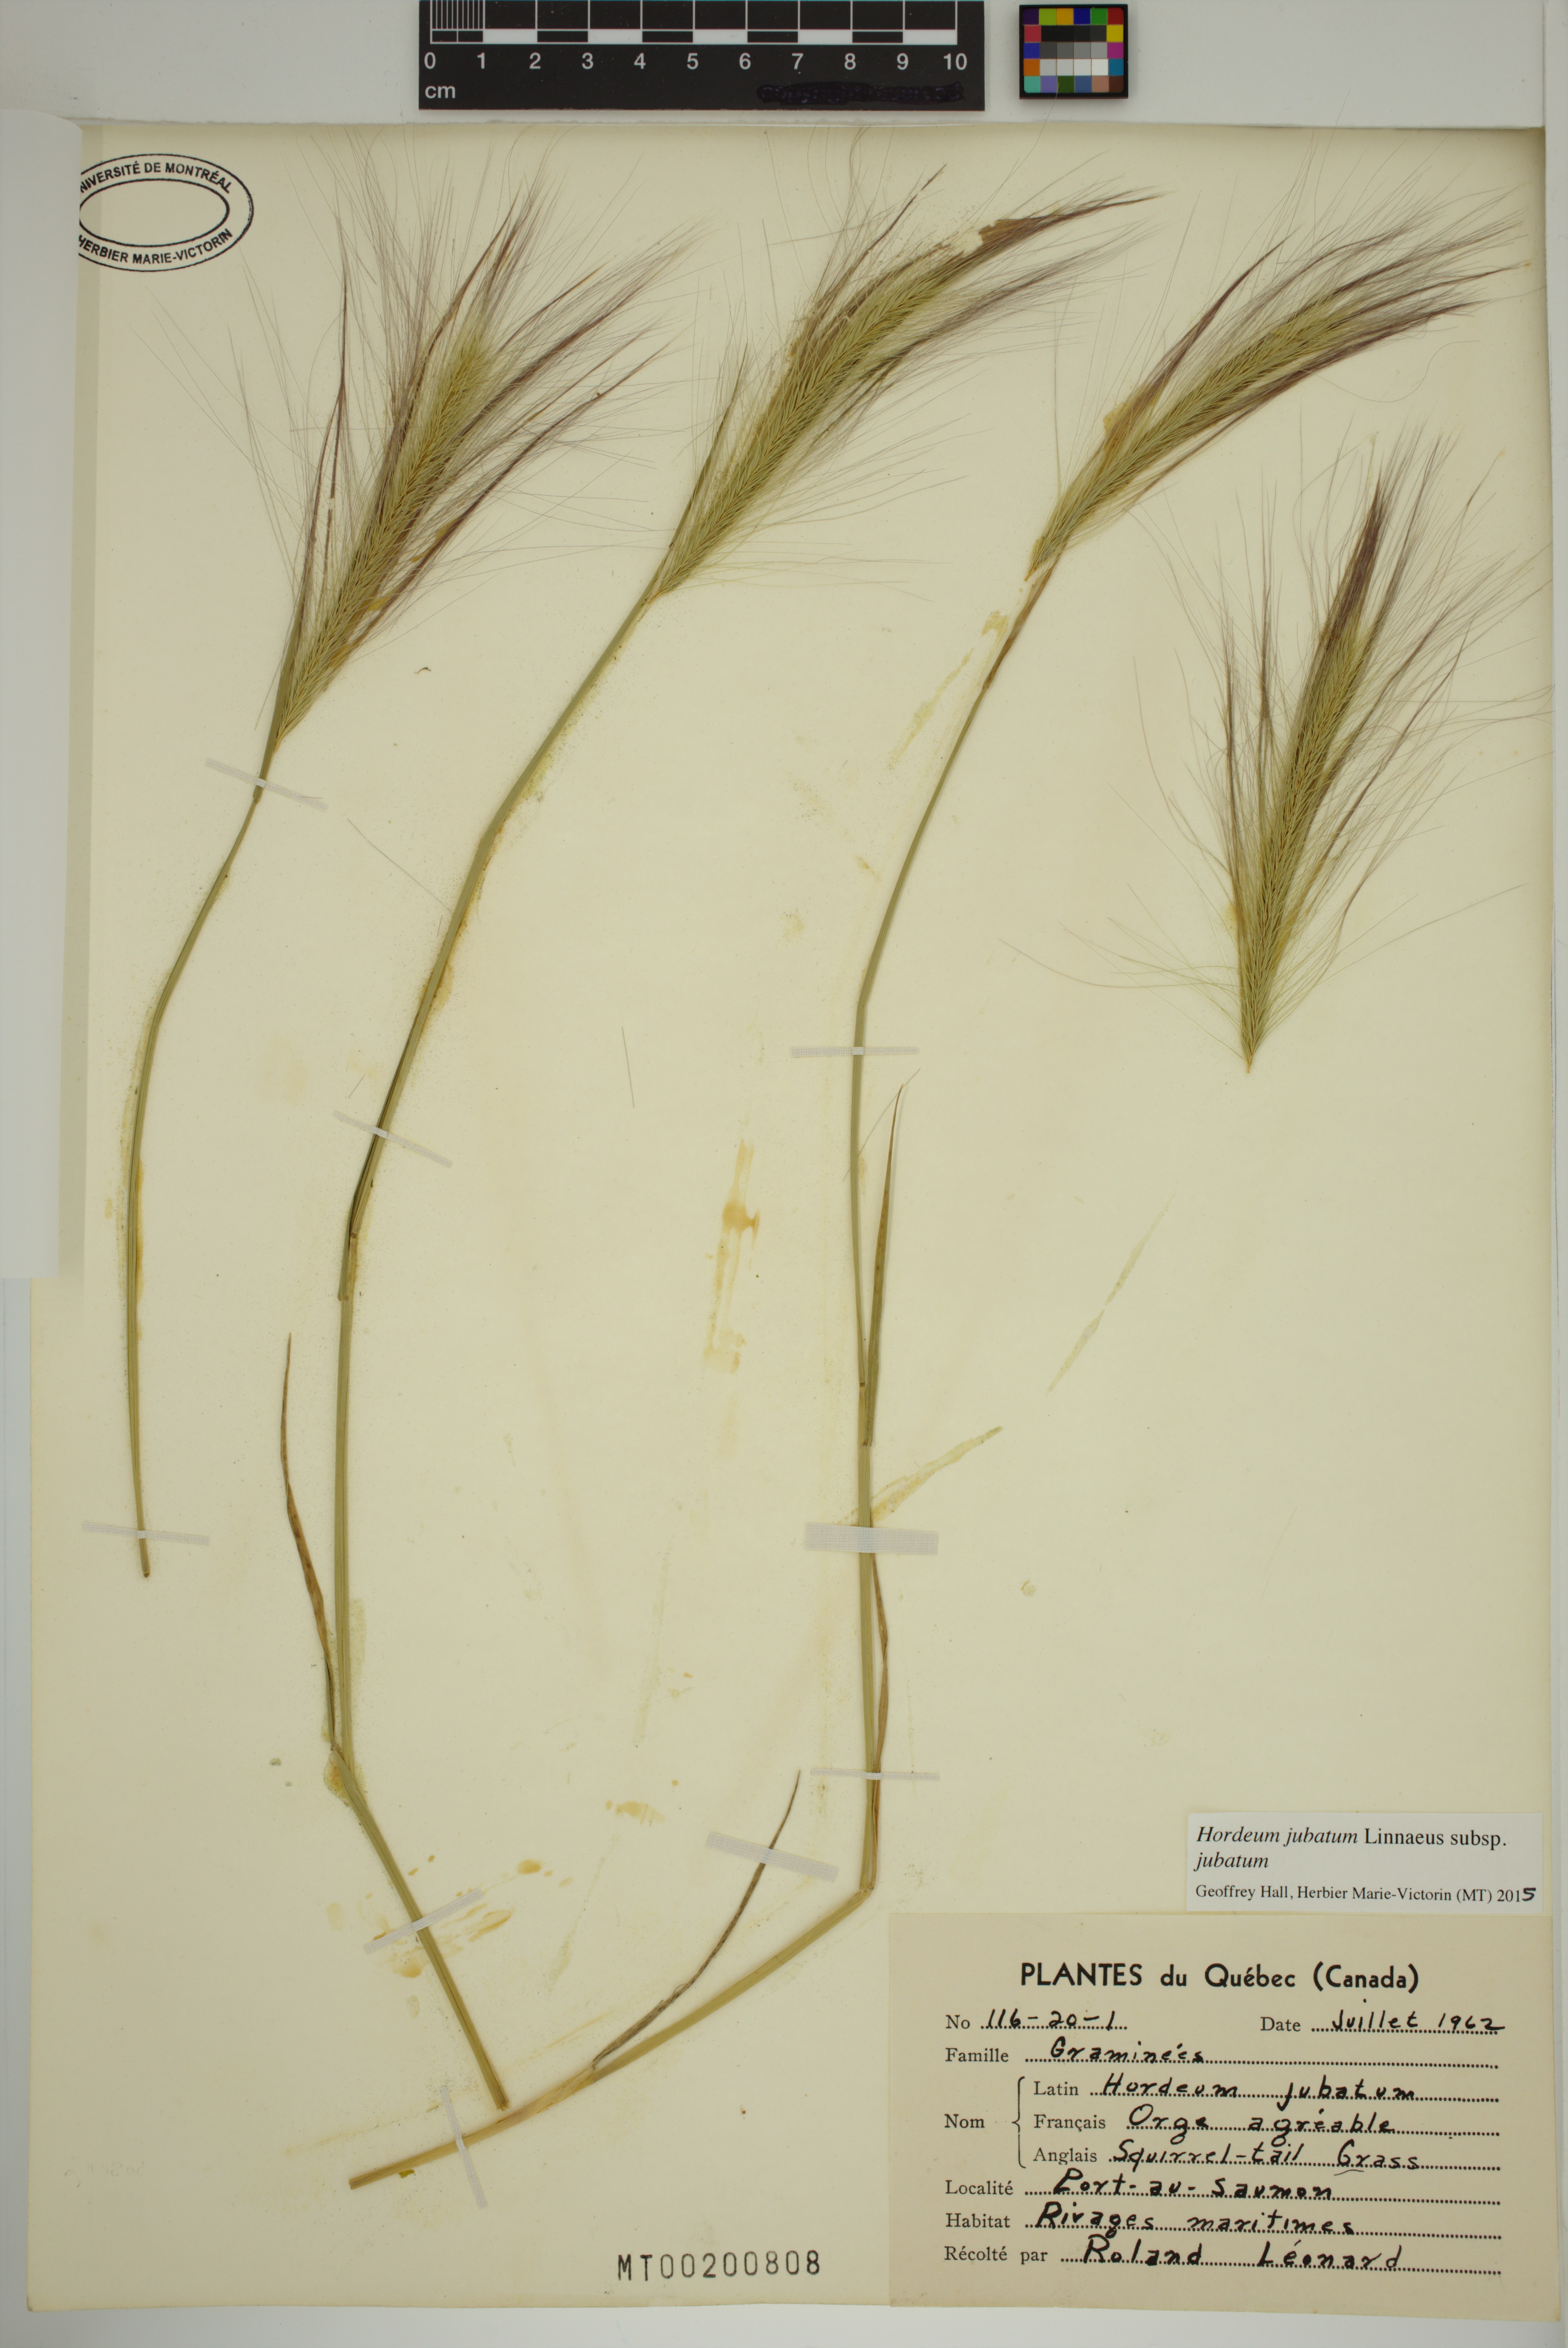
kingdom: Plantae
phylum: Tracheophyta
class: Liliopsida
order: Poales
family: Poaceae
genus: Hordeum
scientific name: Hordeum jubatum
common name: Foxtail barley
